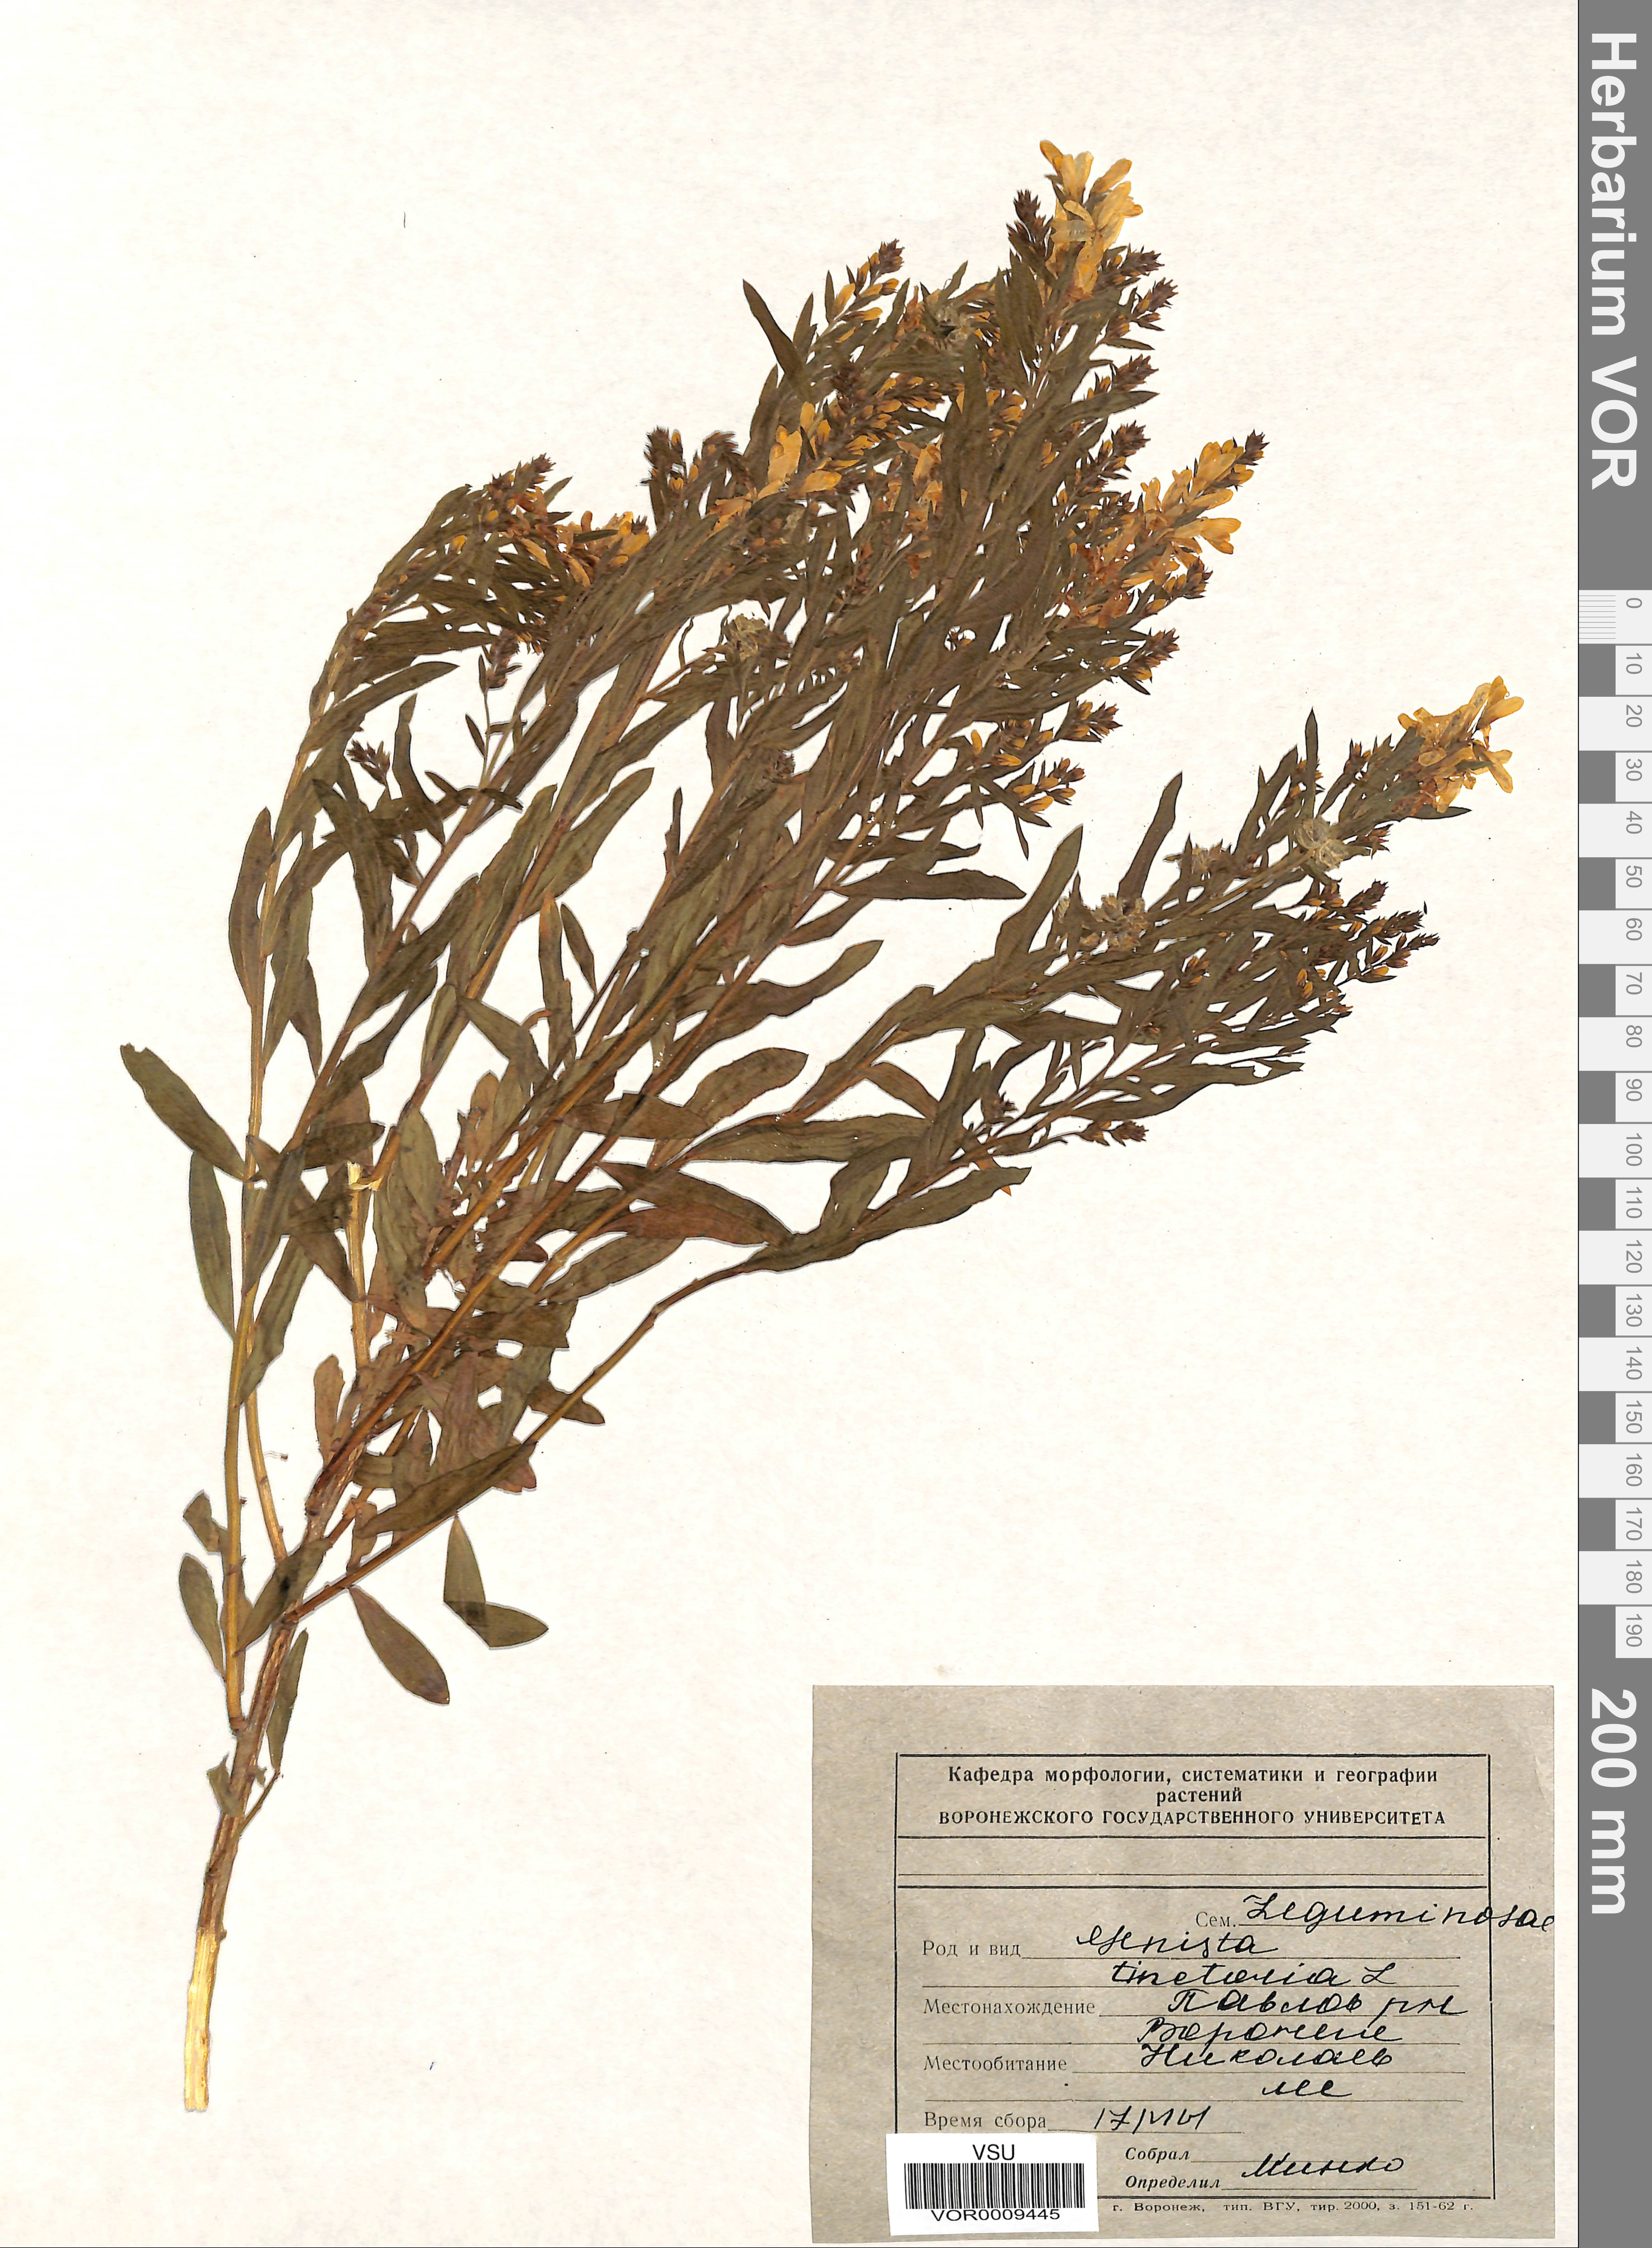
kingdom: Plantae
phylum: Tracheophyta
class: Magnoliopsida
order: Fabales
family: Fabaceae
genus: Genista
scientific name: Genista tinctoria
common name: Dyer's greenweed
